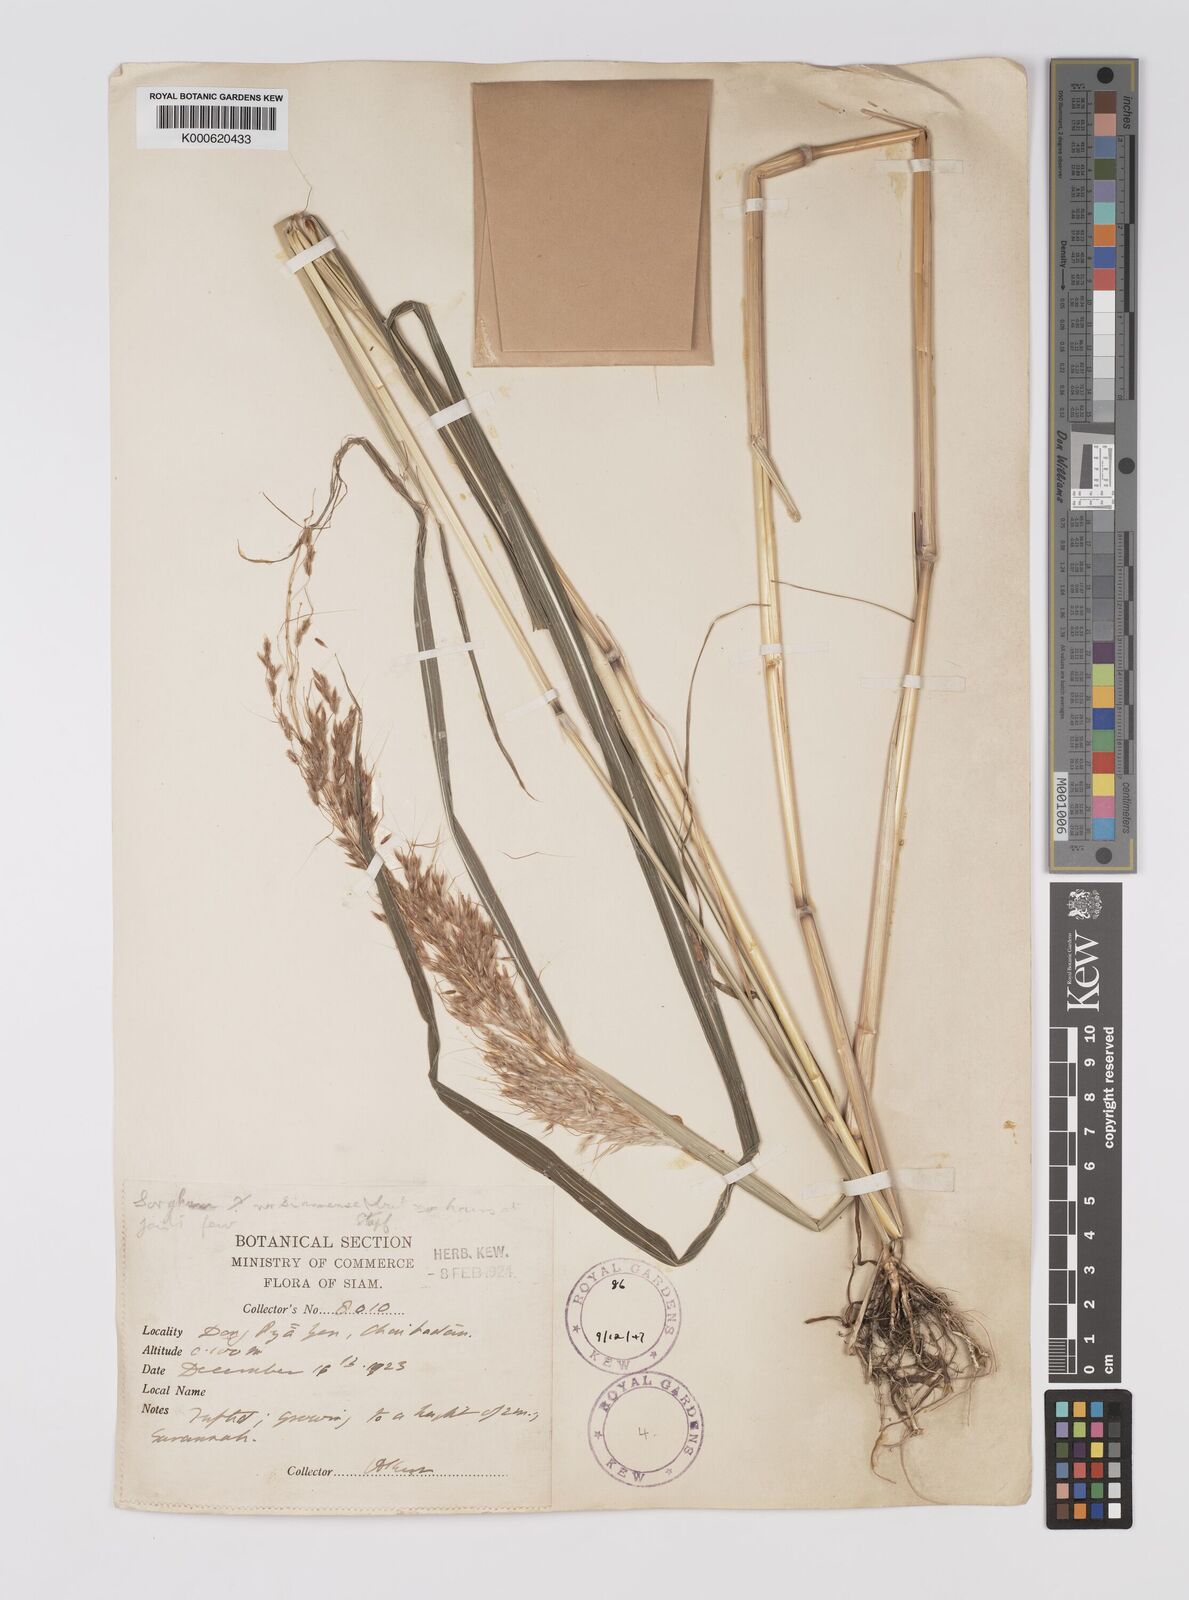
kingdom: Plantae
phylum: Tracheophyta
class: Liliopsida
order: Poales
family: Poaceae
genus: Sorghum
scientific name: Sorghum burmahicum
